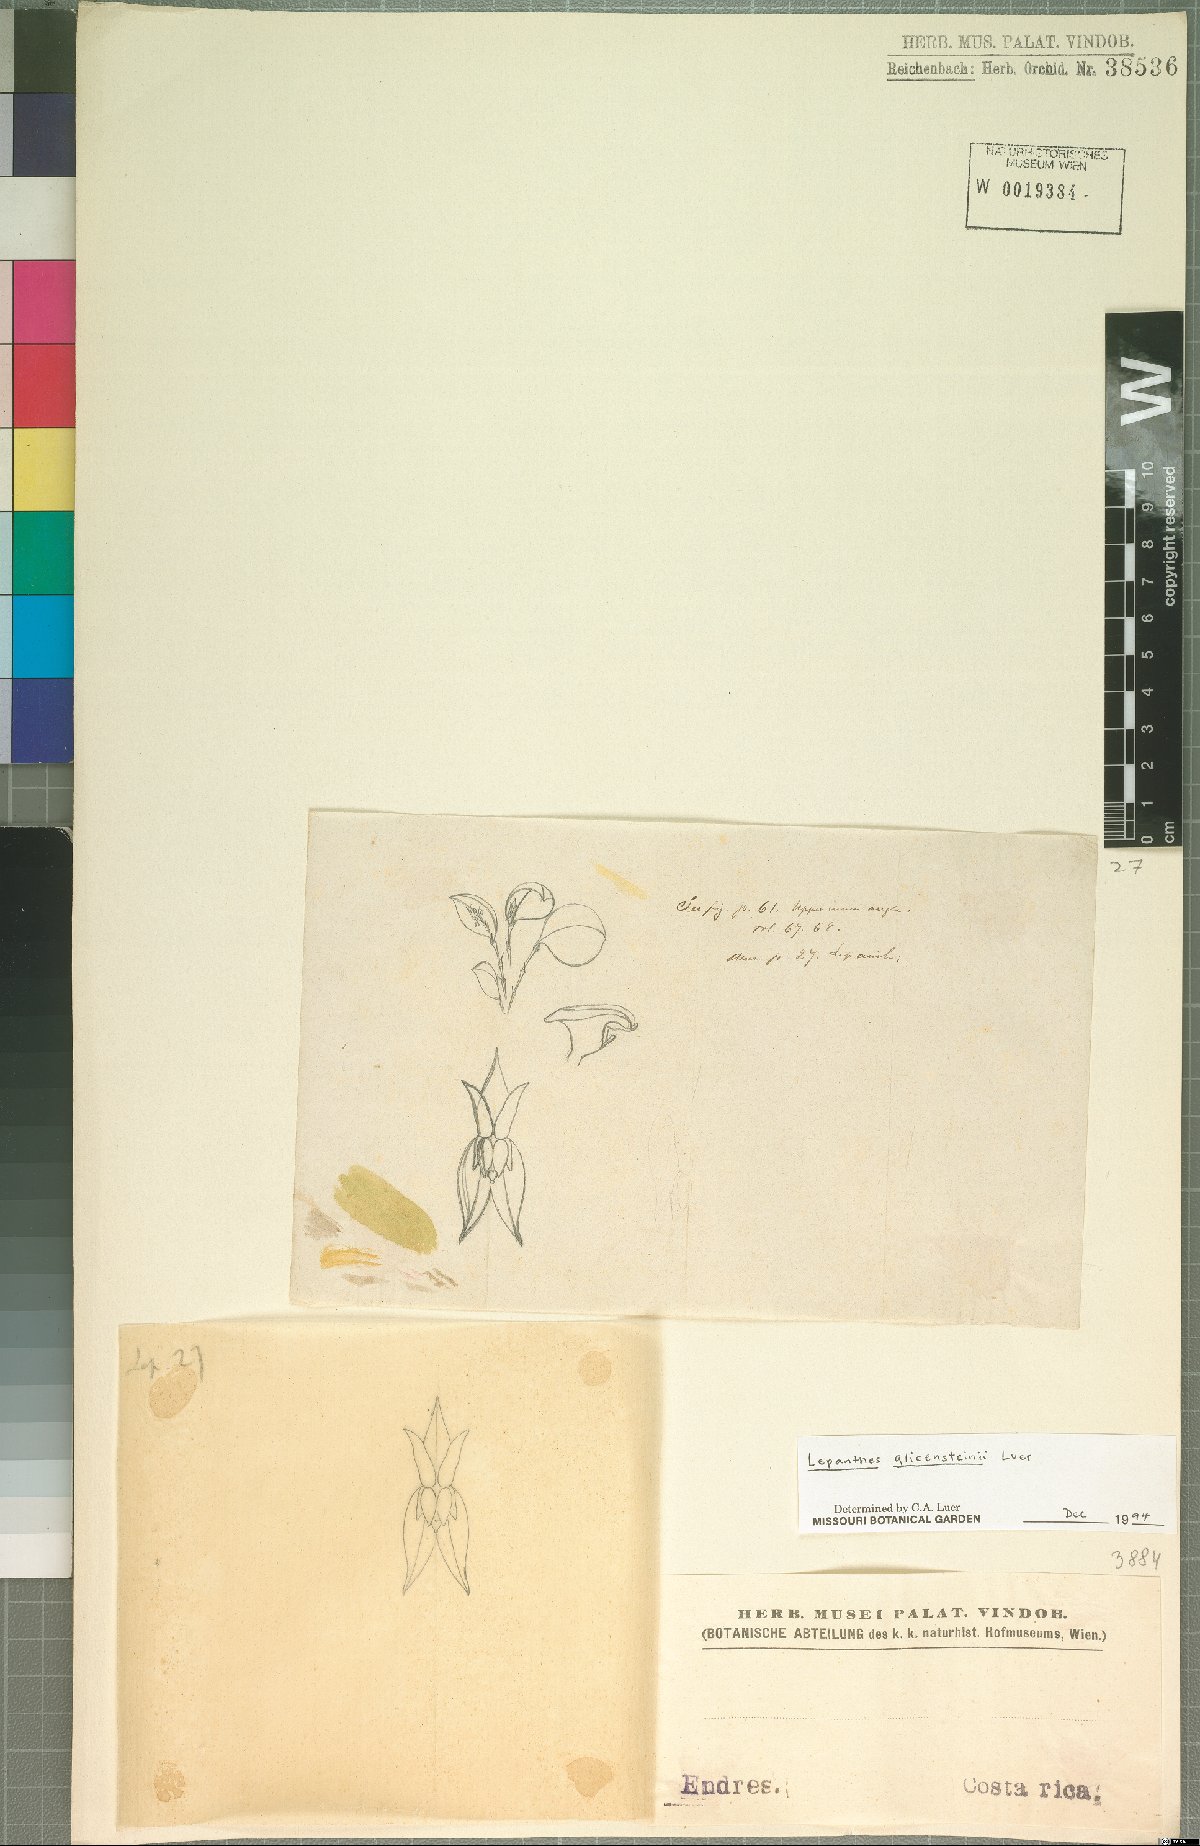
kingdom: Plantae
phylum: Tracheophyta
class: Liliopsida
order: Asparagales
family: Orchidaceae
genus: Lepanthes
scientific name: Lepanthes glicensteinii
